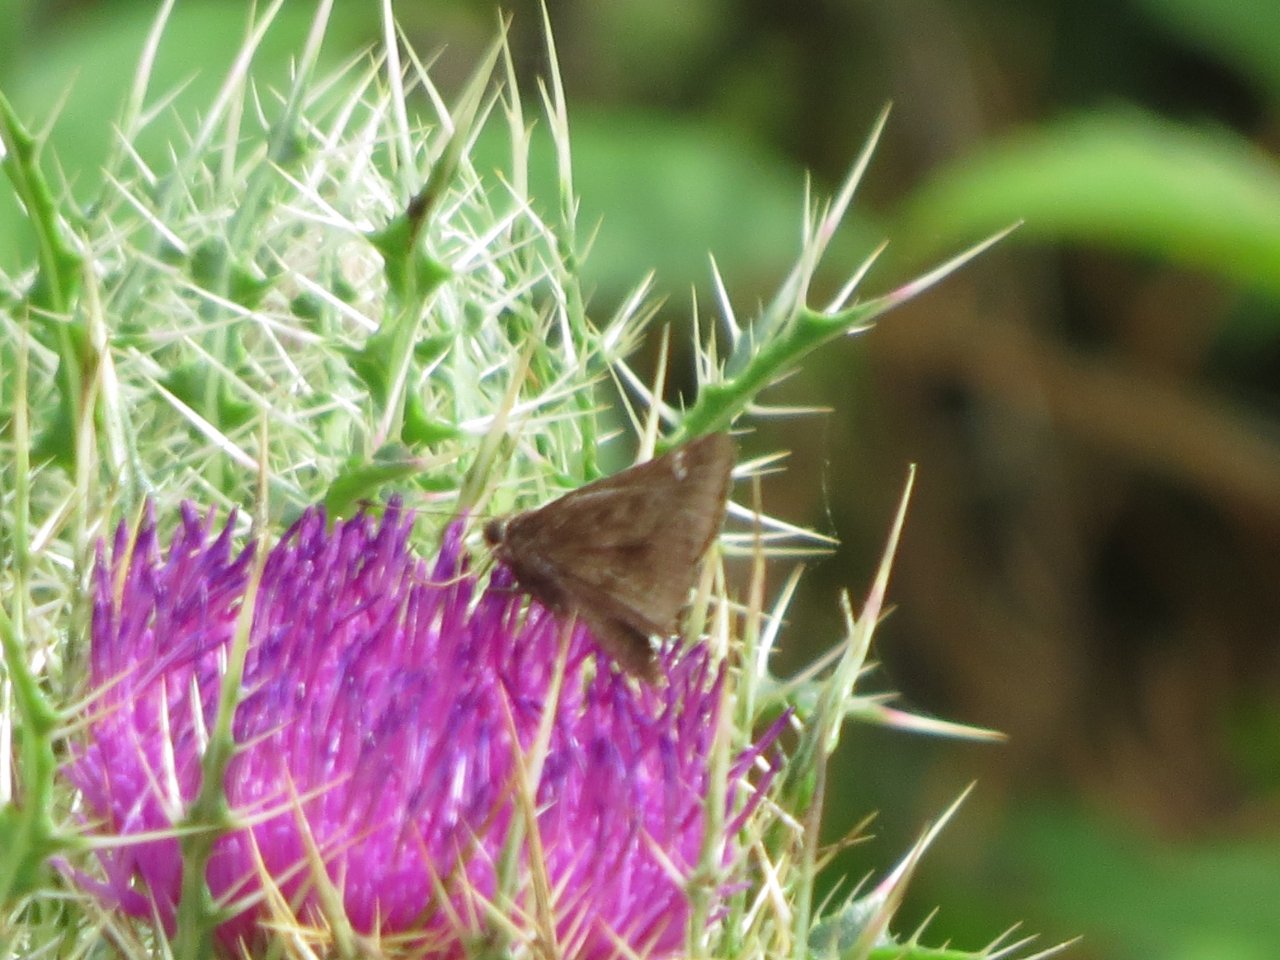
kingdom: Animalia
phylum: Arthropoda
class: Insecta
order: Lepidoptera
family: Hesperiidae
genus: Lerema
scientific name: Lerema accius
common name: Clouded Skipper
